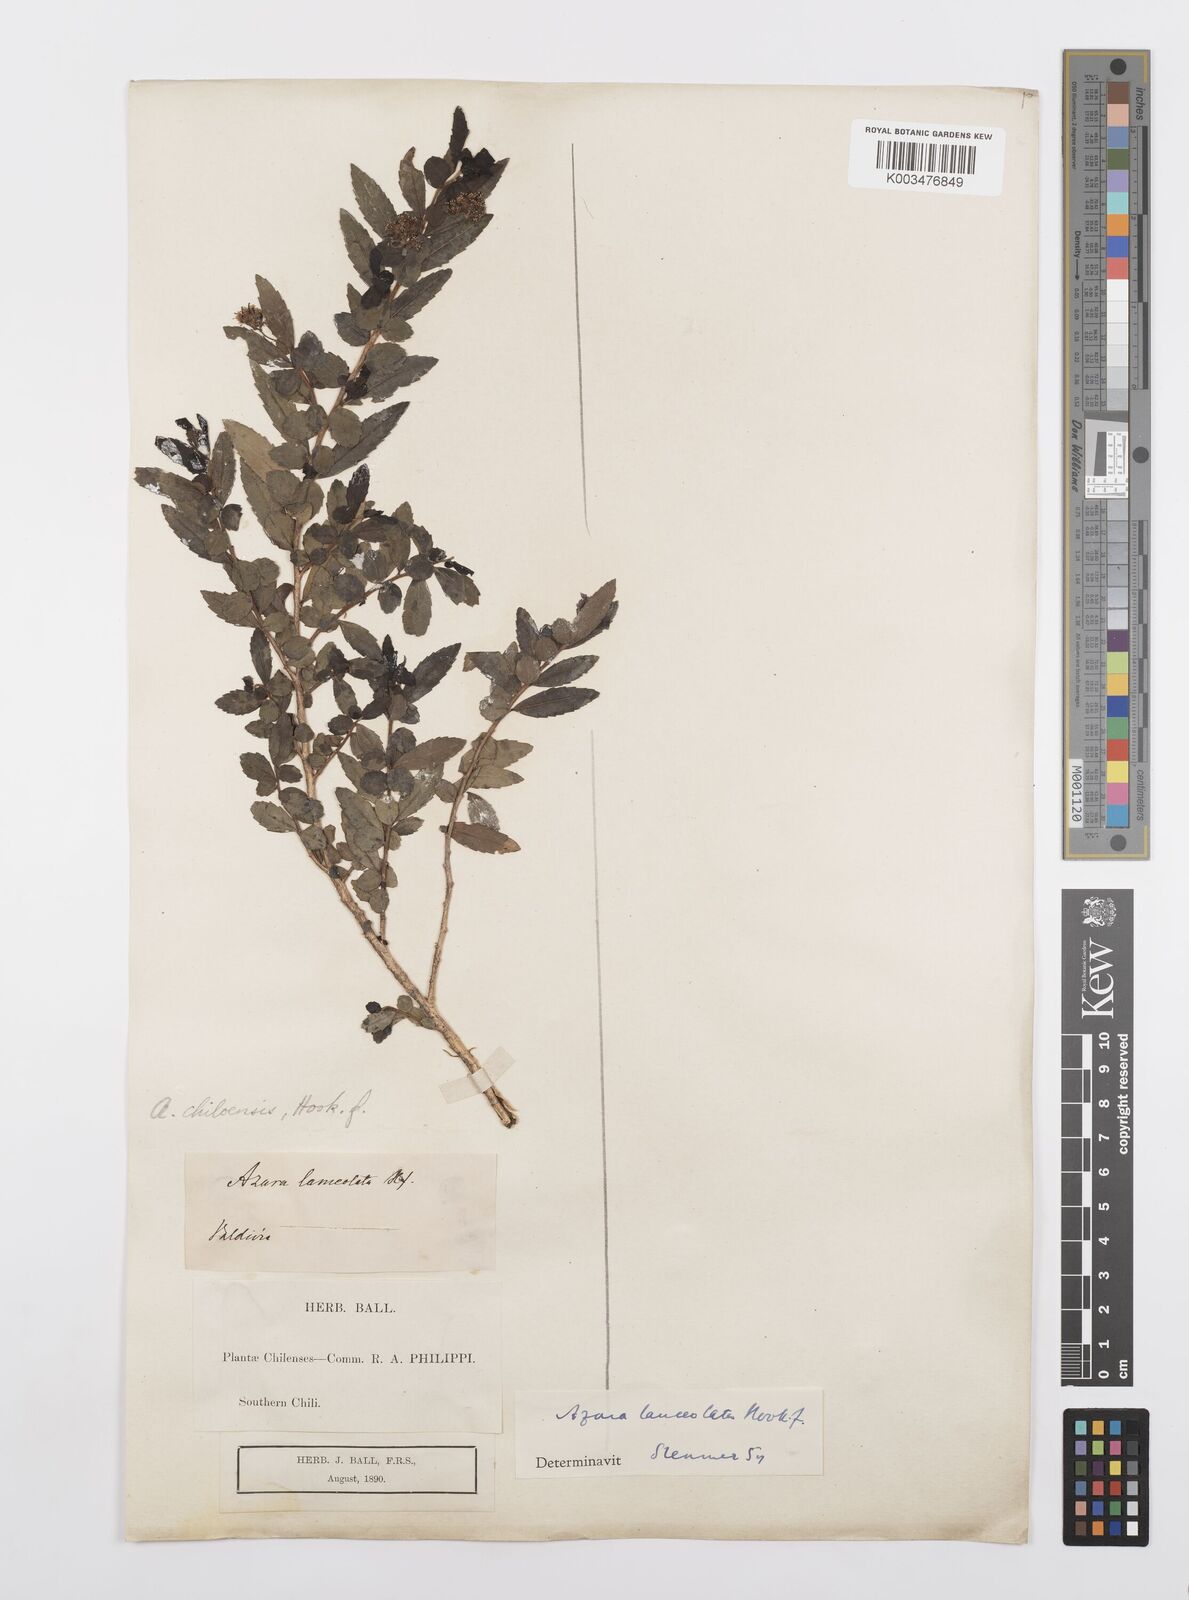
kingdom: Plantae
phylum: Tracheophyta
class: Magnoliopsida
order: Malpighiales
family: Salicaceae
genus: Azara
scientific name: Azara lanceolata
